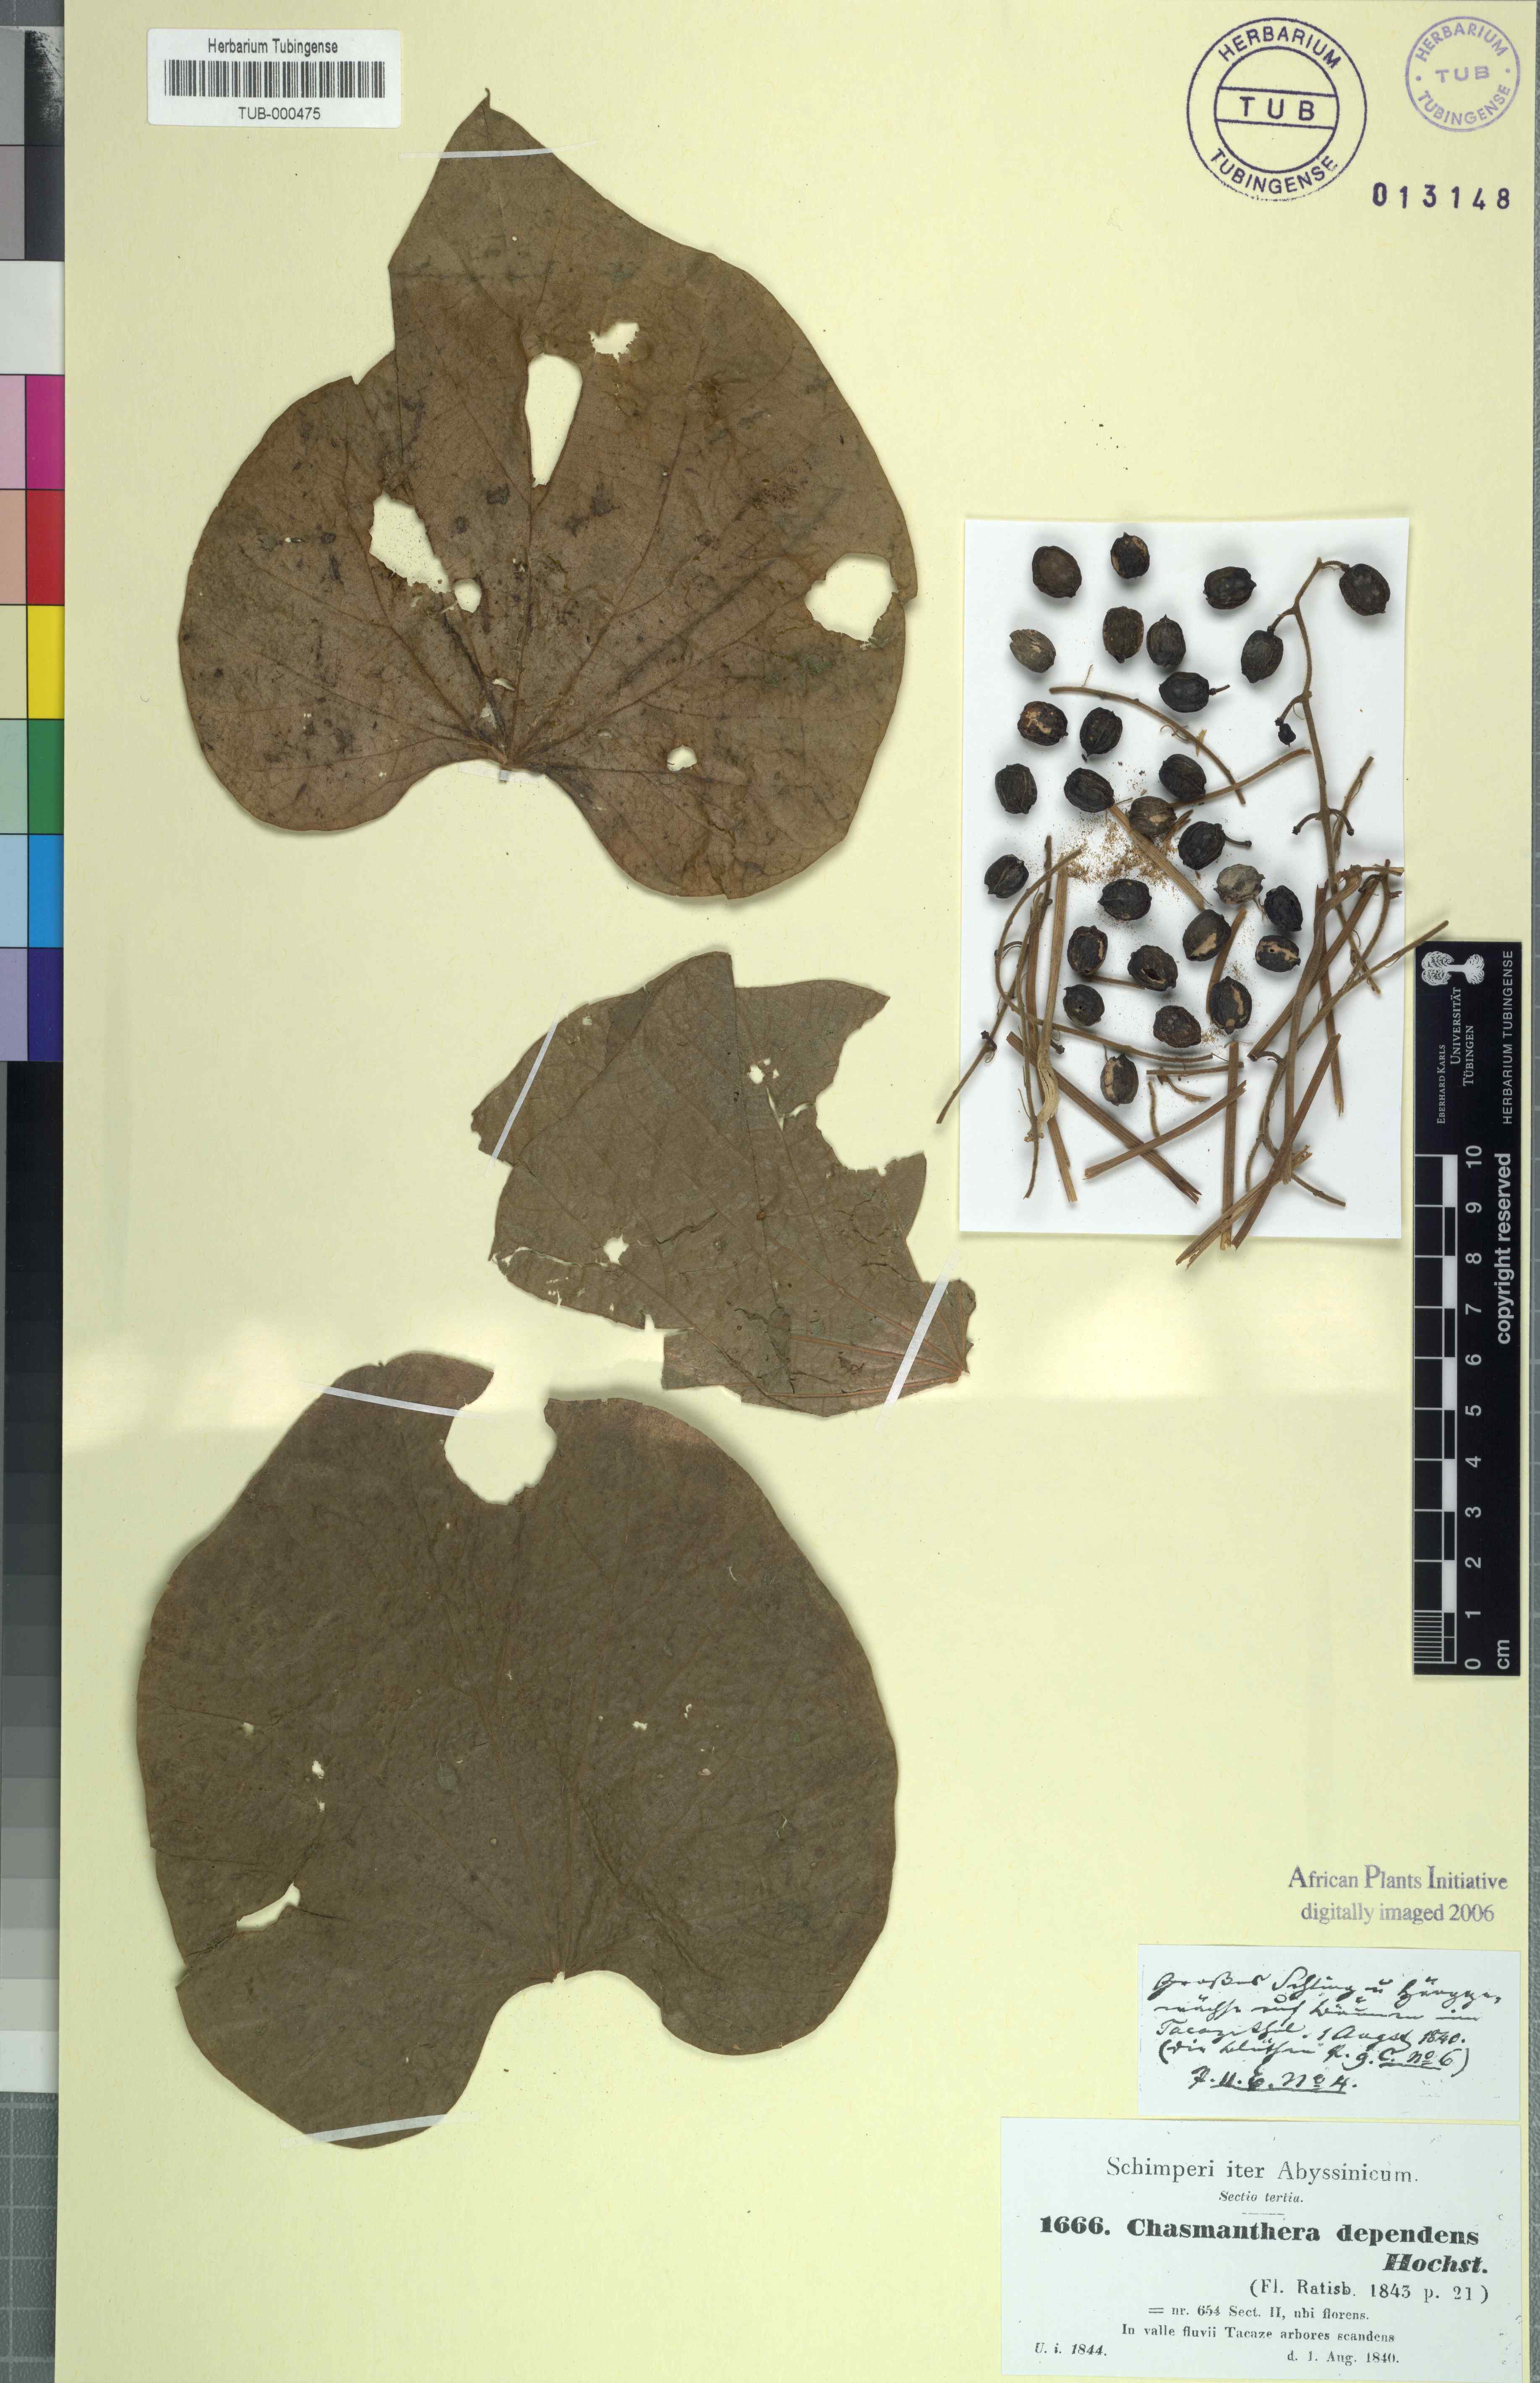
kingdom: Plantae
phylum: Tracheophyta
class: Magnoliopsida
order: Ranunculales
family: Menispermaceae
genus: Chasmanthera
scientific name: Chasmanthera dependens
